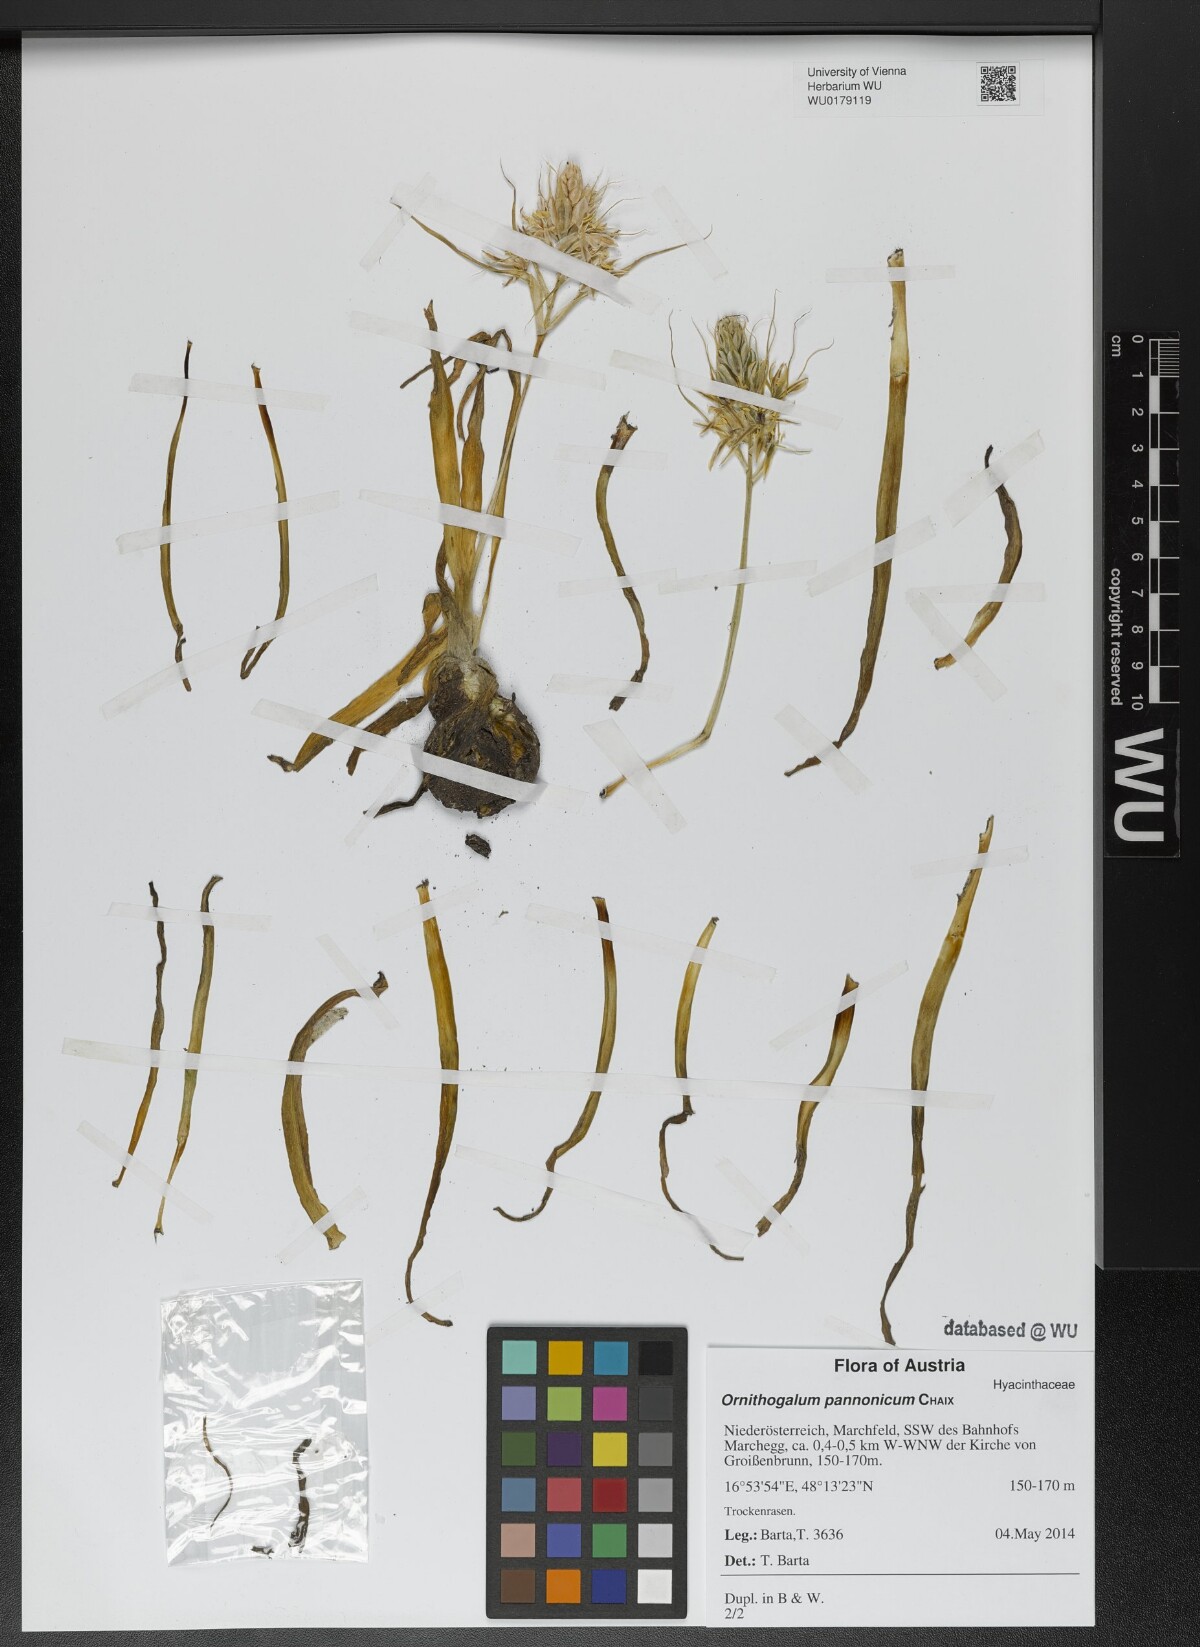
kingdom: Plantae
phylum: Tracheophyta
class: Liliopsida
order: Asparagales
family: Asparagaceae
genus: Ornithogalum
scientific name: Ornithogalum comosum
